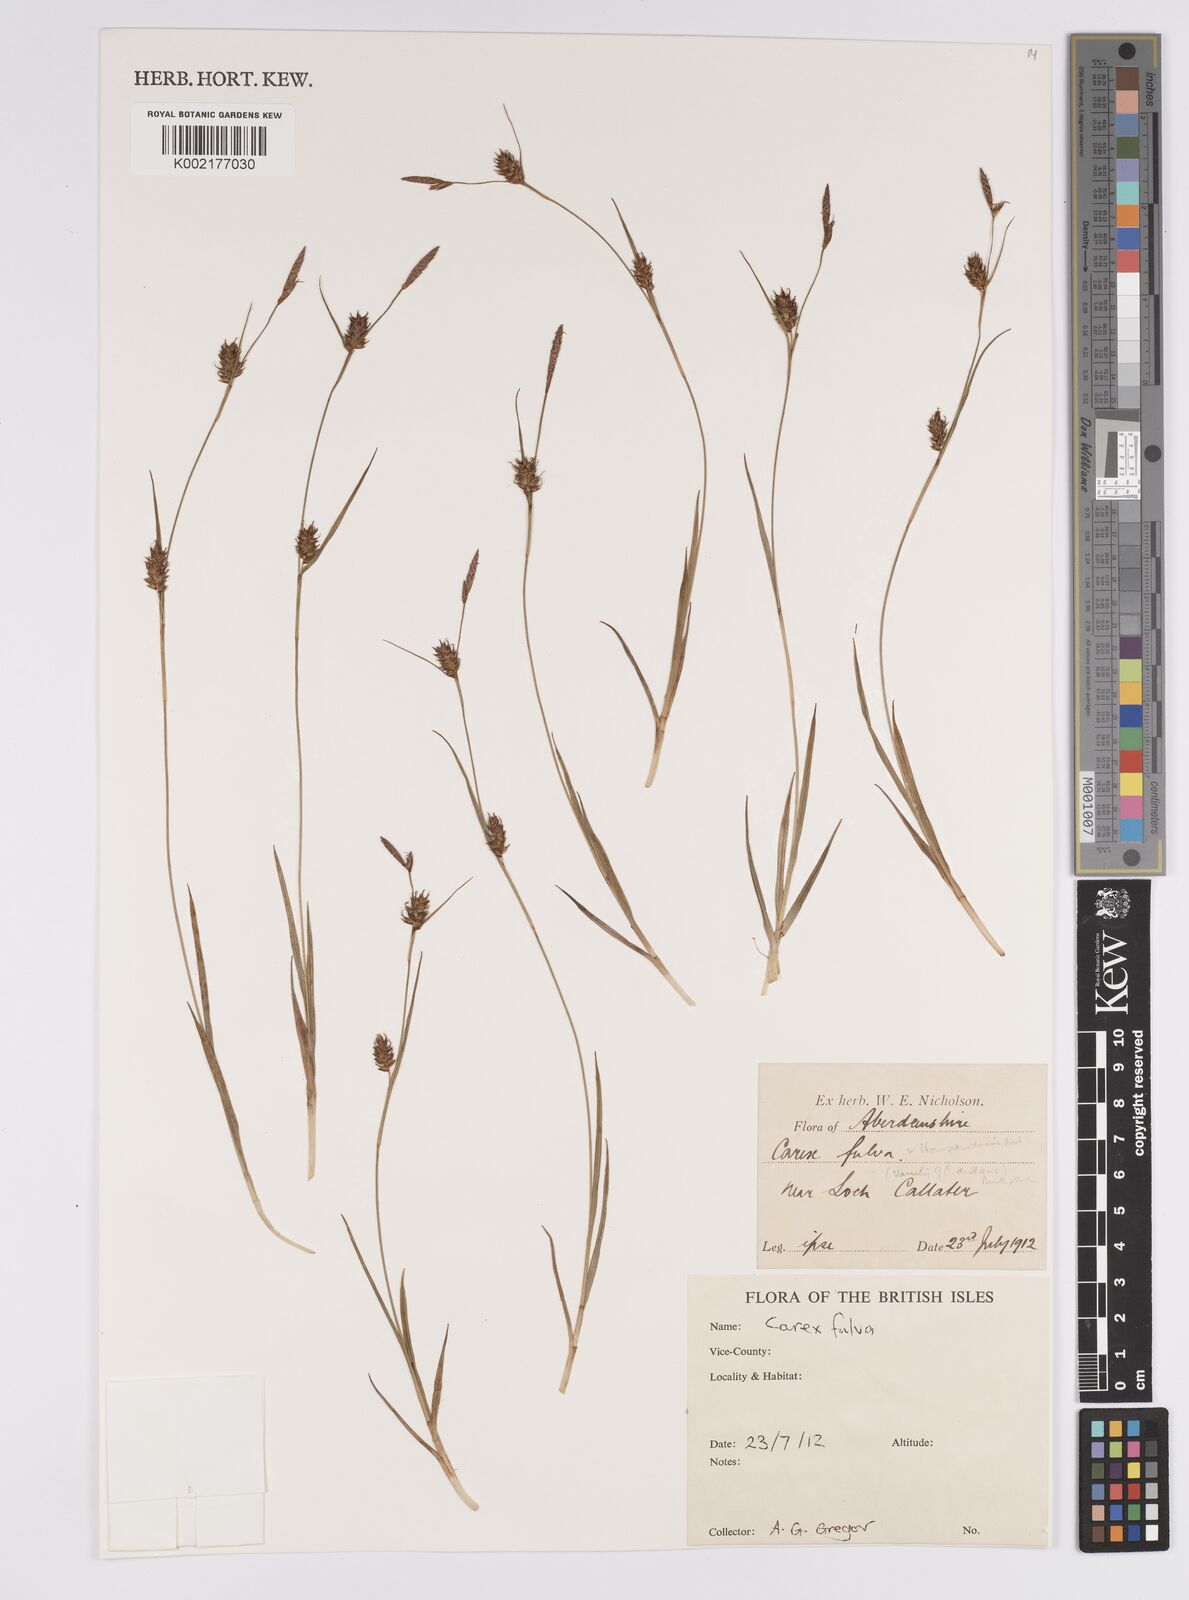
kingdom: Plantae
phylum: Tracheophyta
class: Liliopsida
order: Poales
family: Cyperaceae
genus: Carex
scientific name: Carex hostiana
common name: Tawny sedge
